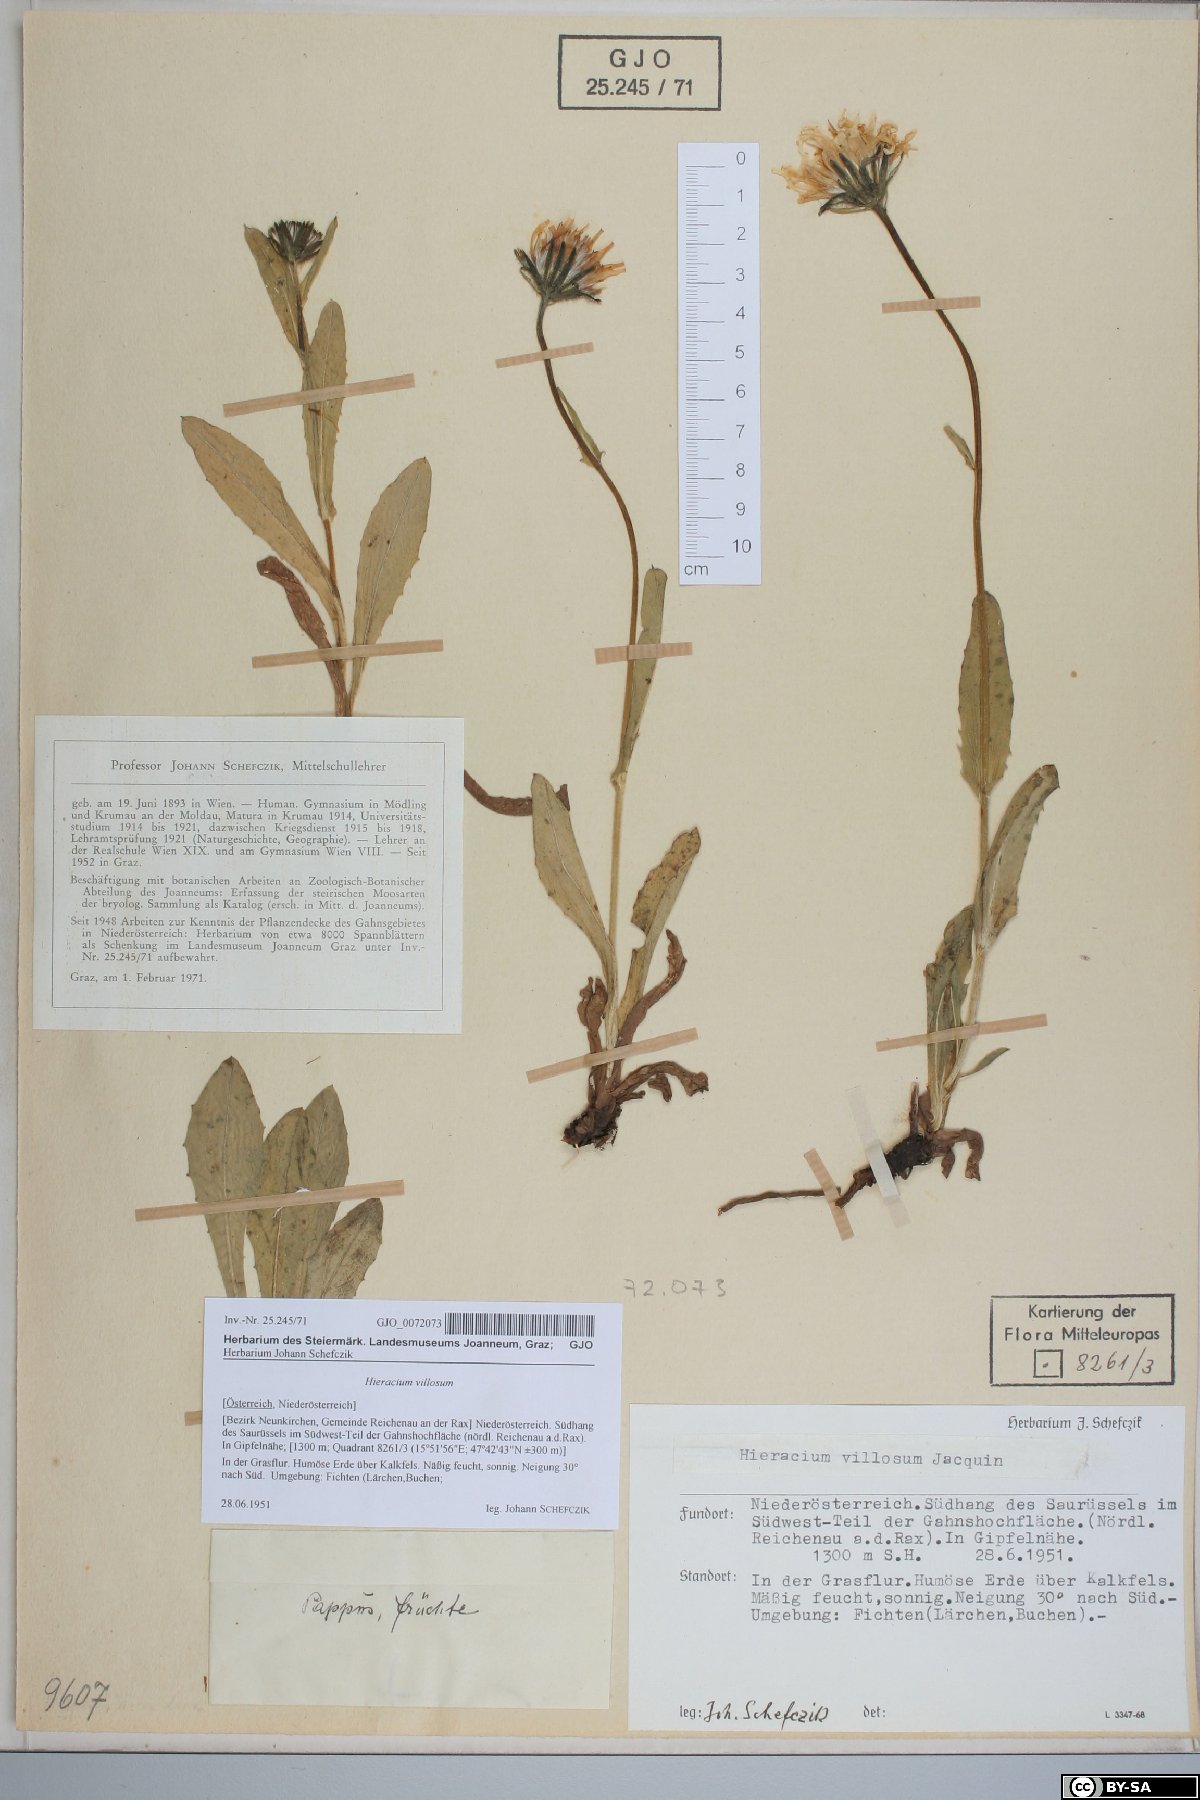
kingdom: Plantae
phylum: Tracheophyta
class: Magnoliopsida
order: Asterales
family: Asteraceae
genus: Hieracium
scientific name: Hieracium villosum
